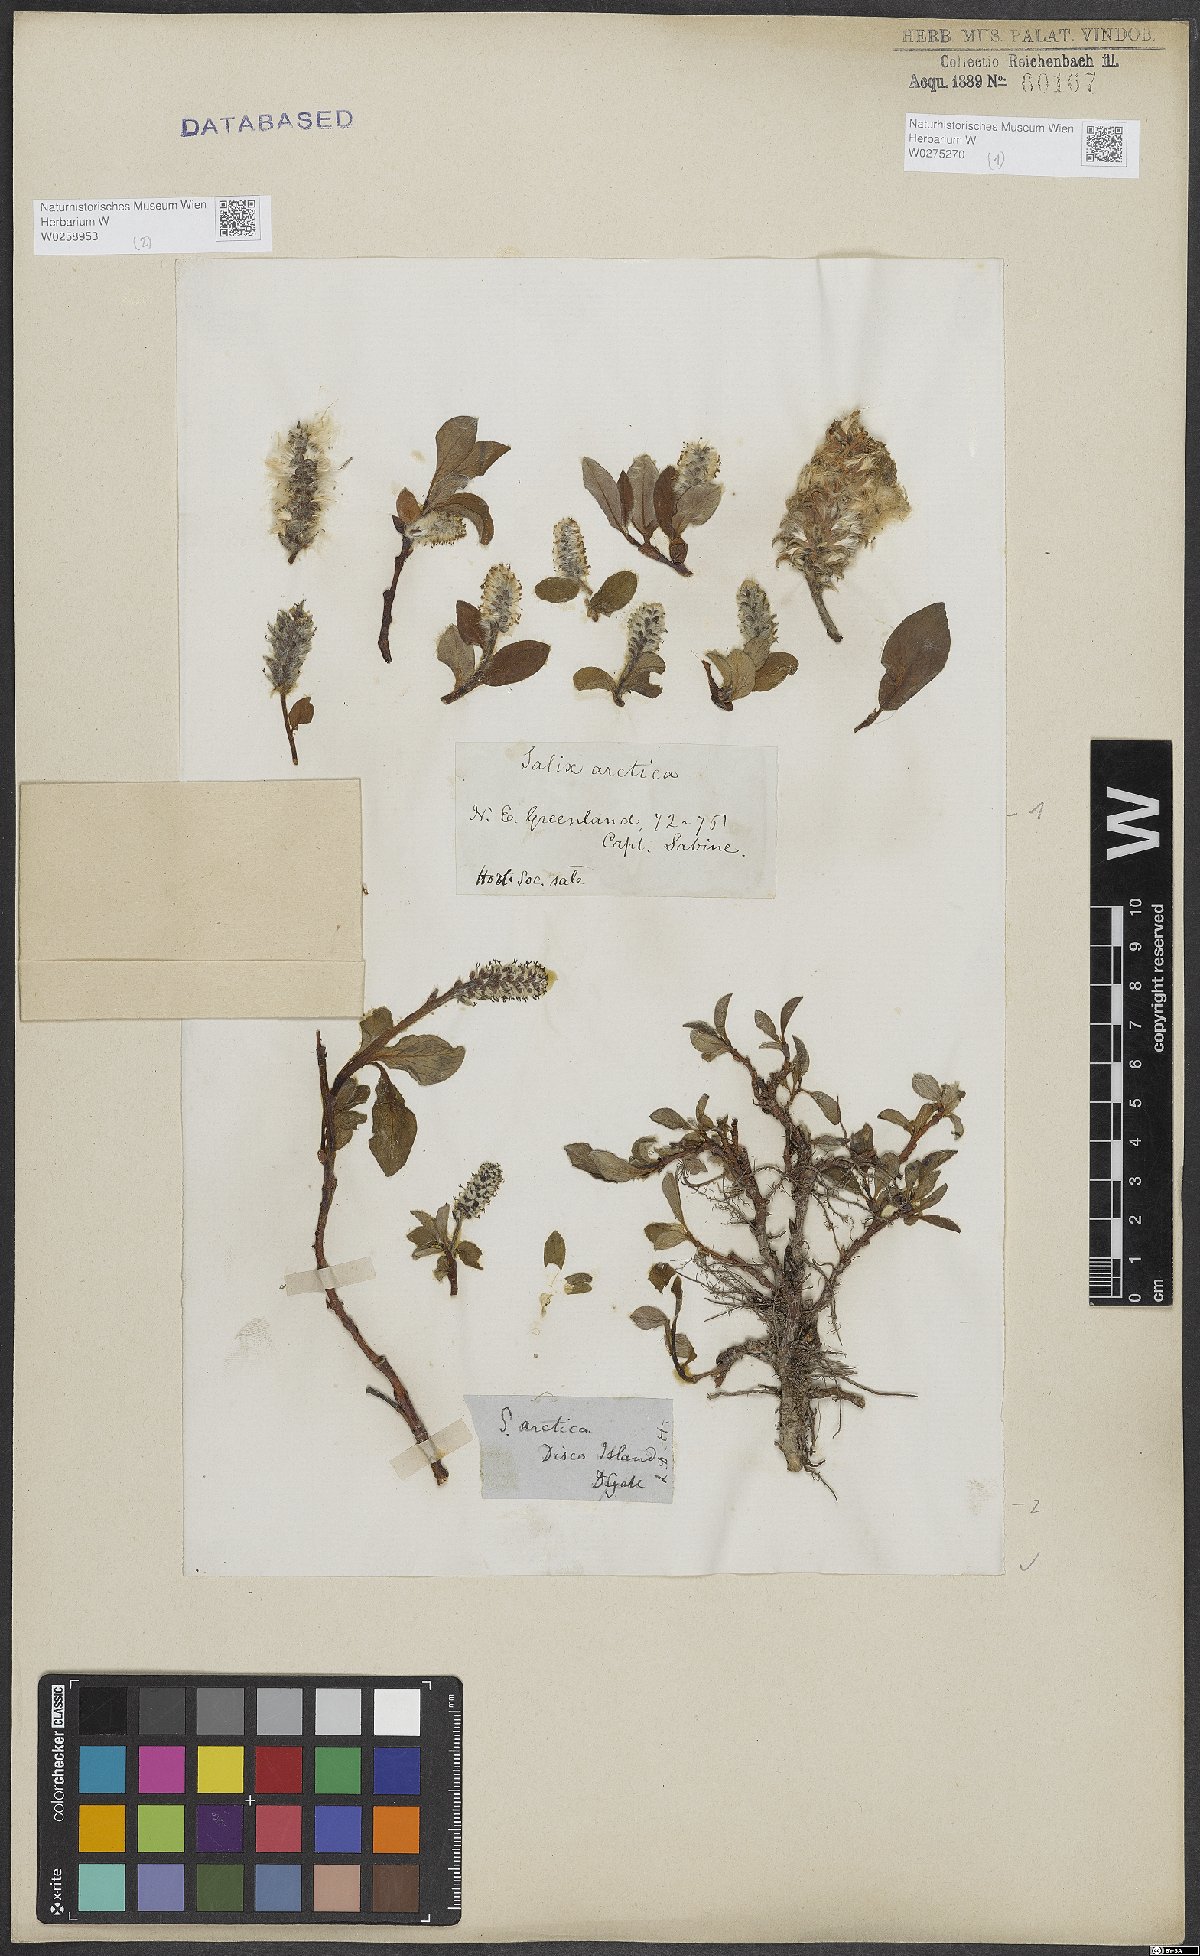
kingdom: Plantae
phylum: Tracheophyta
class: Magnoliopsida
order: Malpighiales
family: Salicaceae
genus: Salix
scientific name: Salix arctica
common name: Arctic willow
